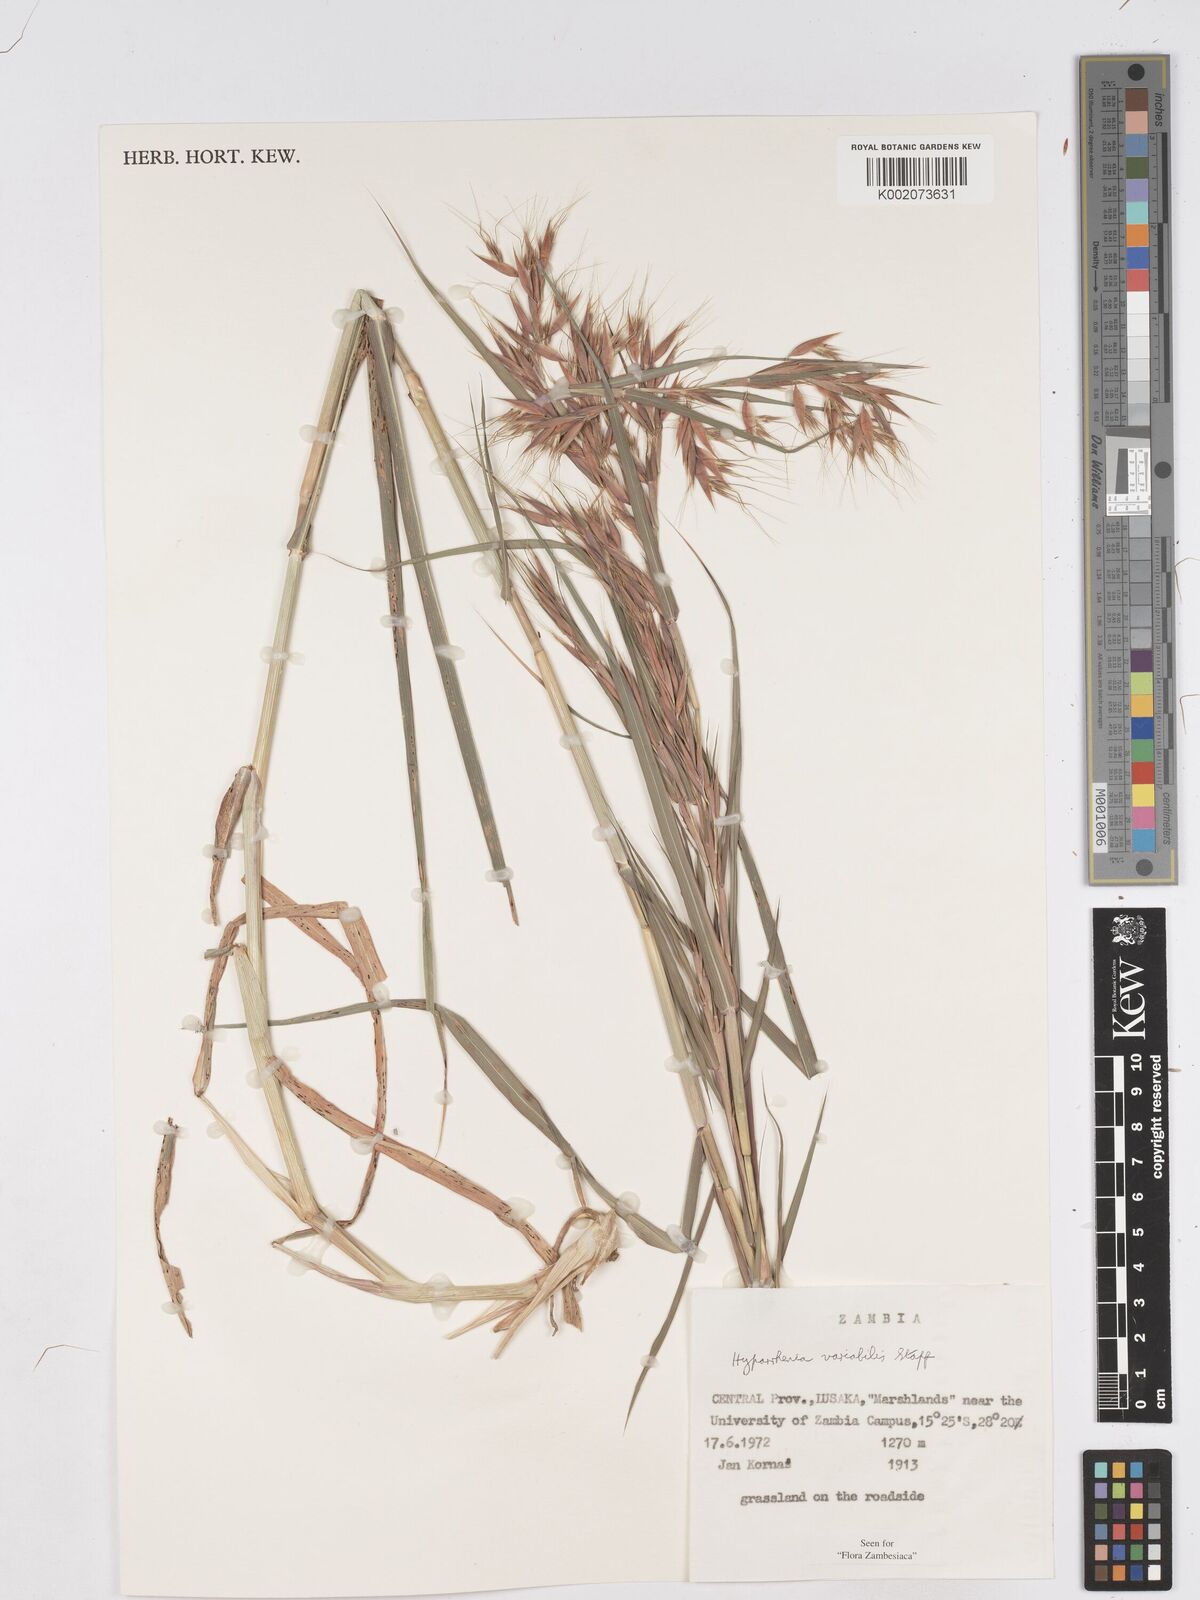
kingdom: Plantae
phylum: Tracheophyta
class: Liliopsida
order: Poales
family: Poaceae
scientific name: Poaceae
